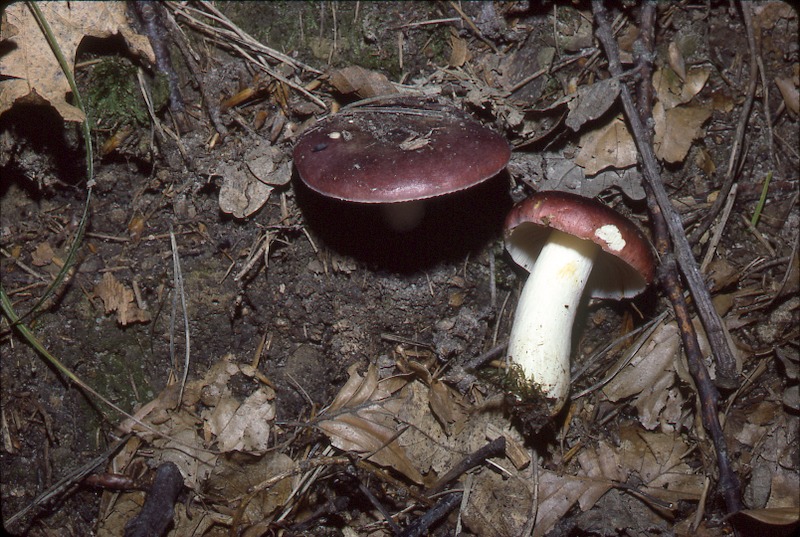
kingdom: Fungi
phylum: Basidiomycota
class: Agaricomycetes
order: Russulales
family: Russulaceae
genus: Russula
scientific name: Russula atropurpurea
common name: Blackish-purple russula
